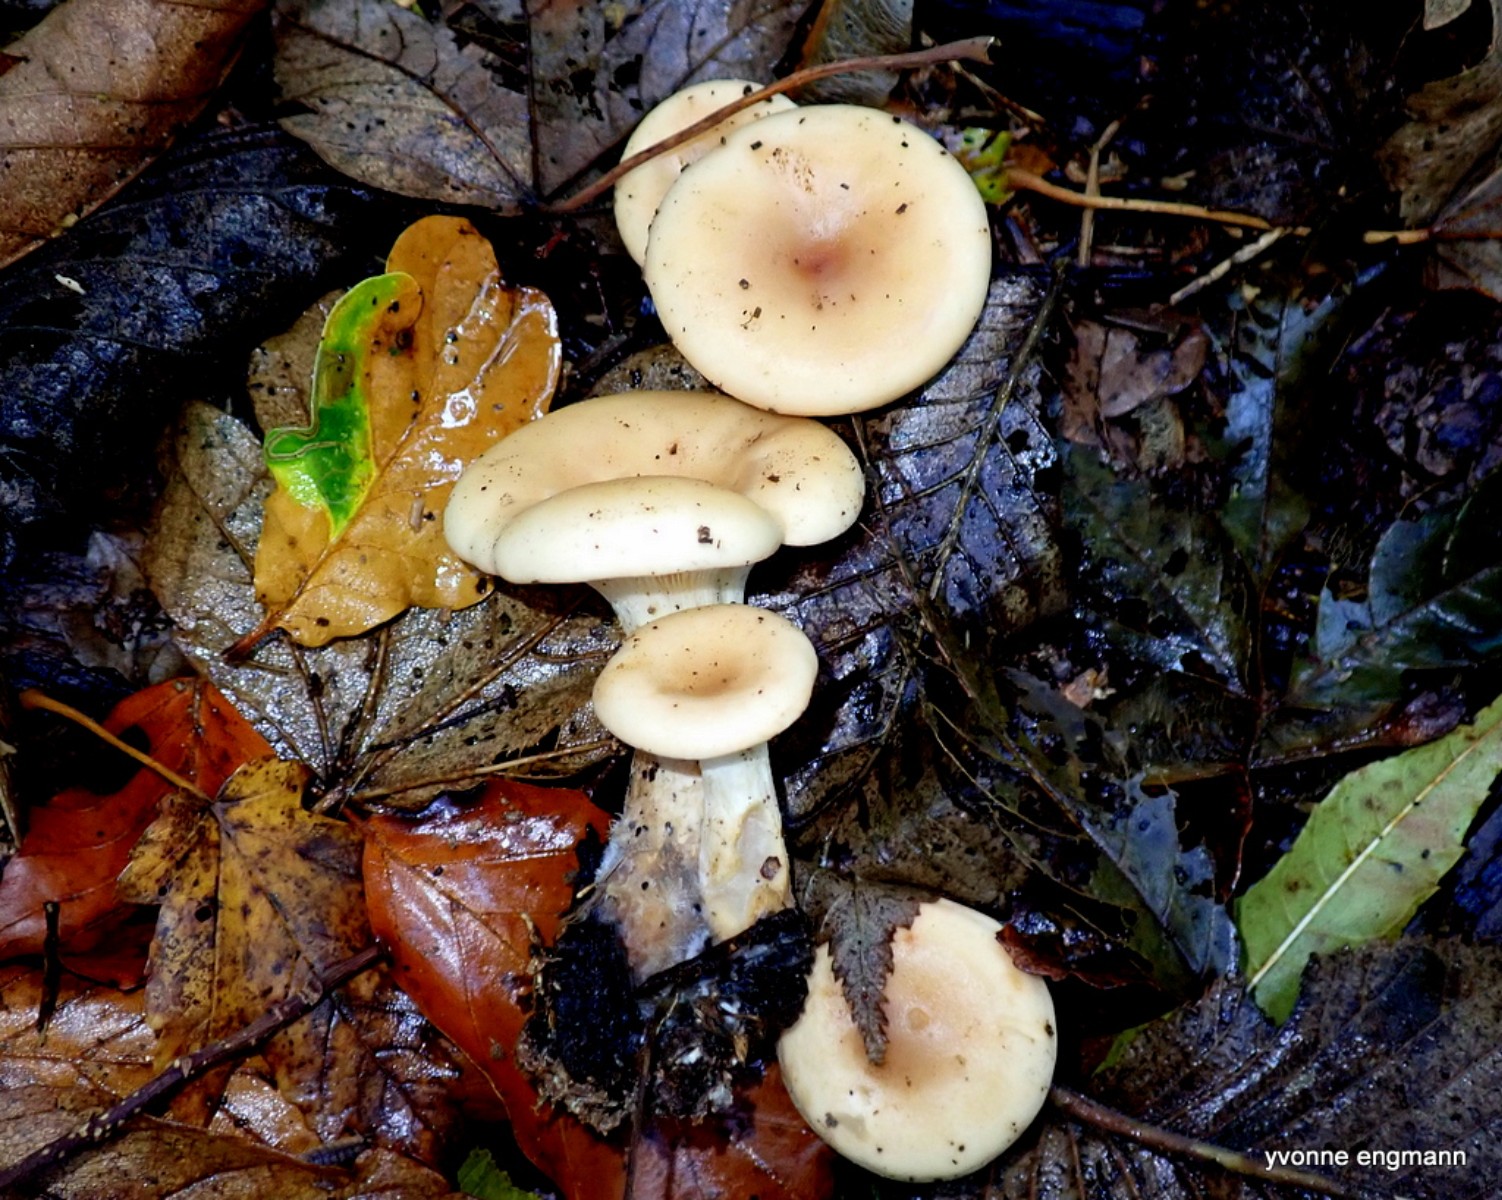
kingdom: Fungi
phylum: Basidiomycota
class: Agaricomycetes
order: Agaricales
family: Tricholomataceae
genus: Paralepista
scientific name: Paralepista flaccida
